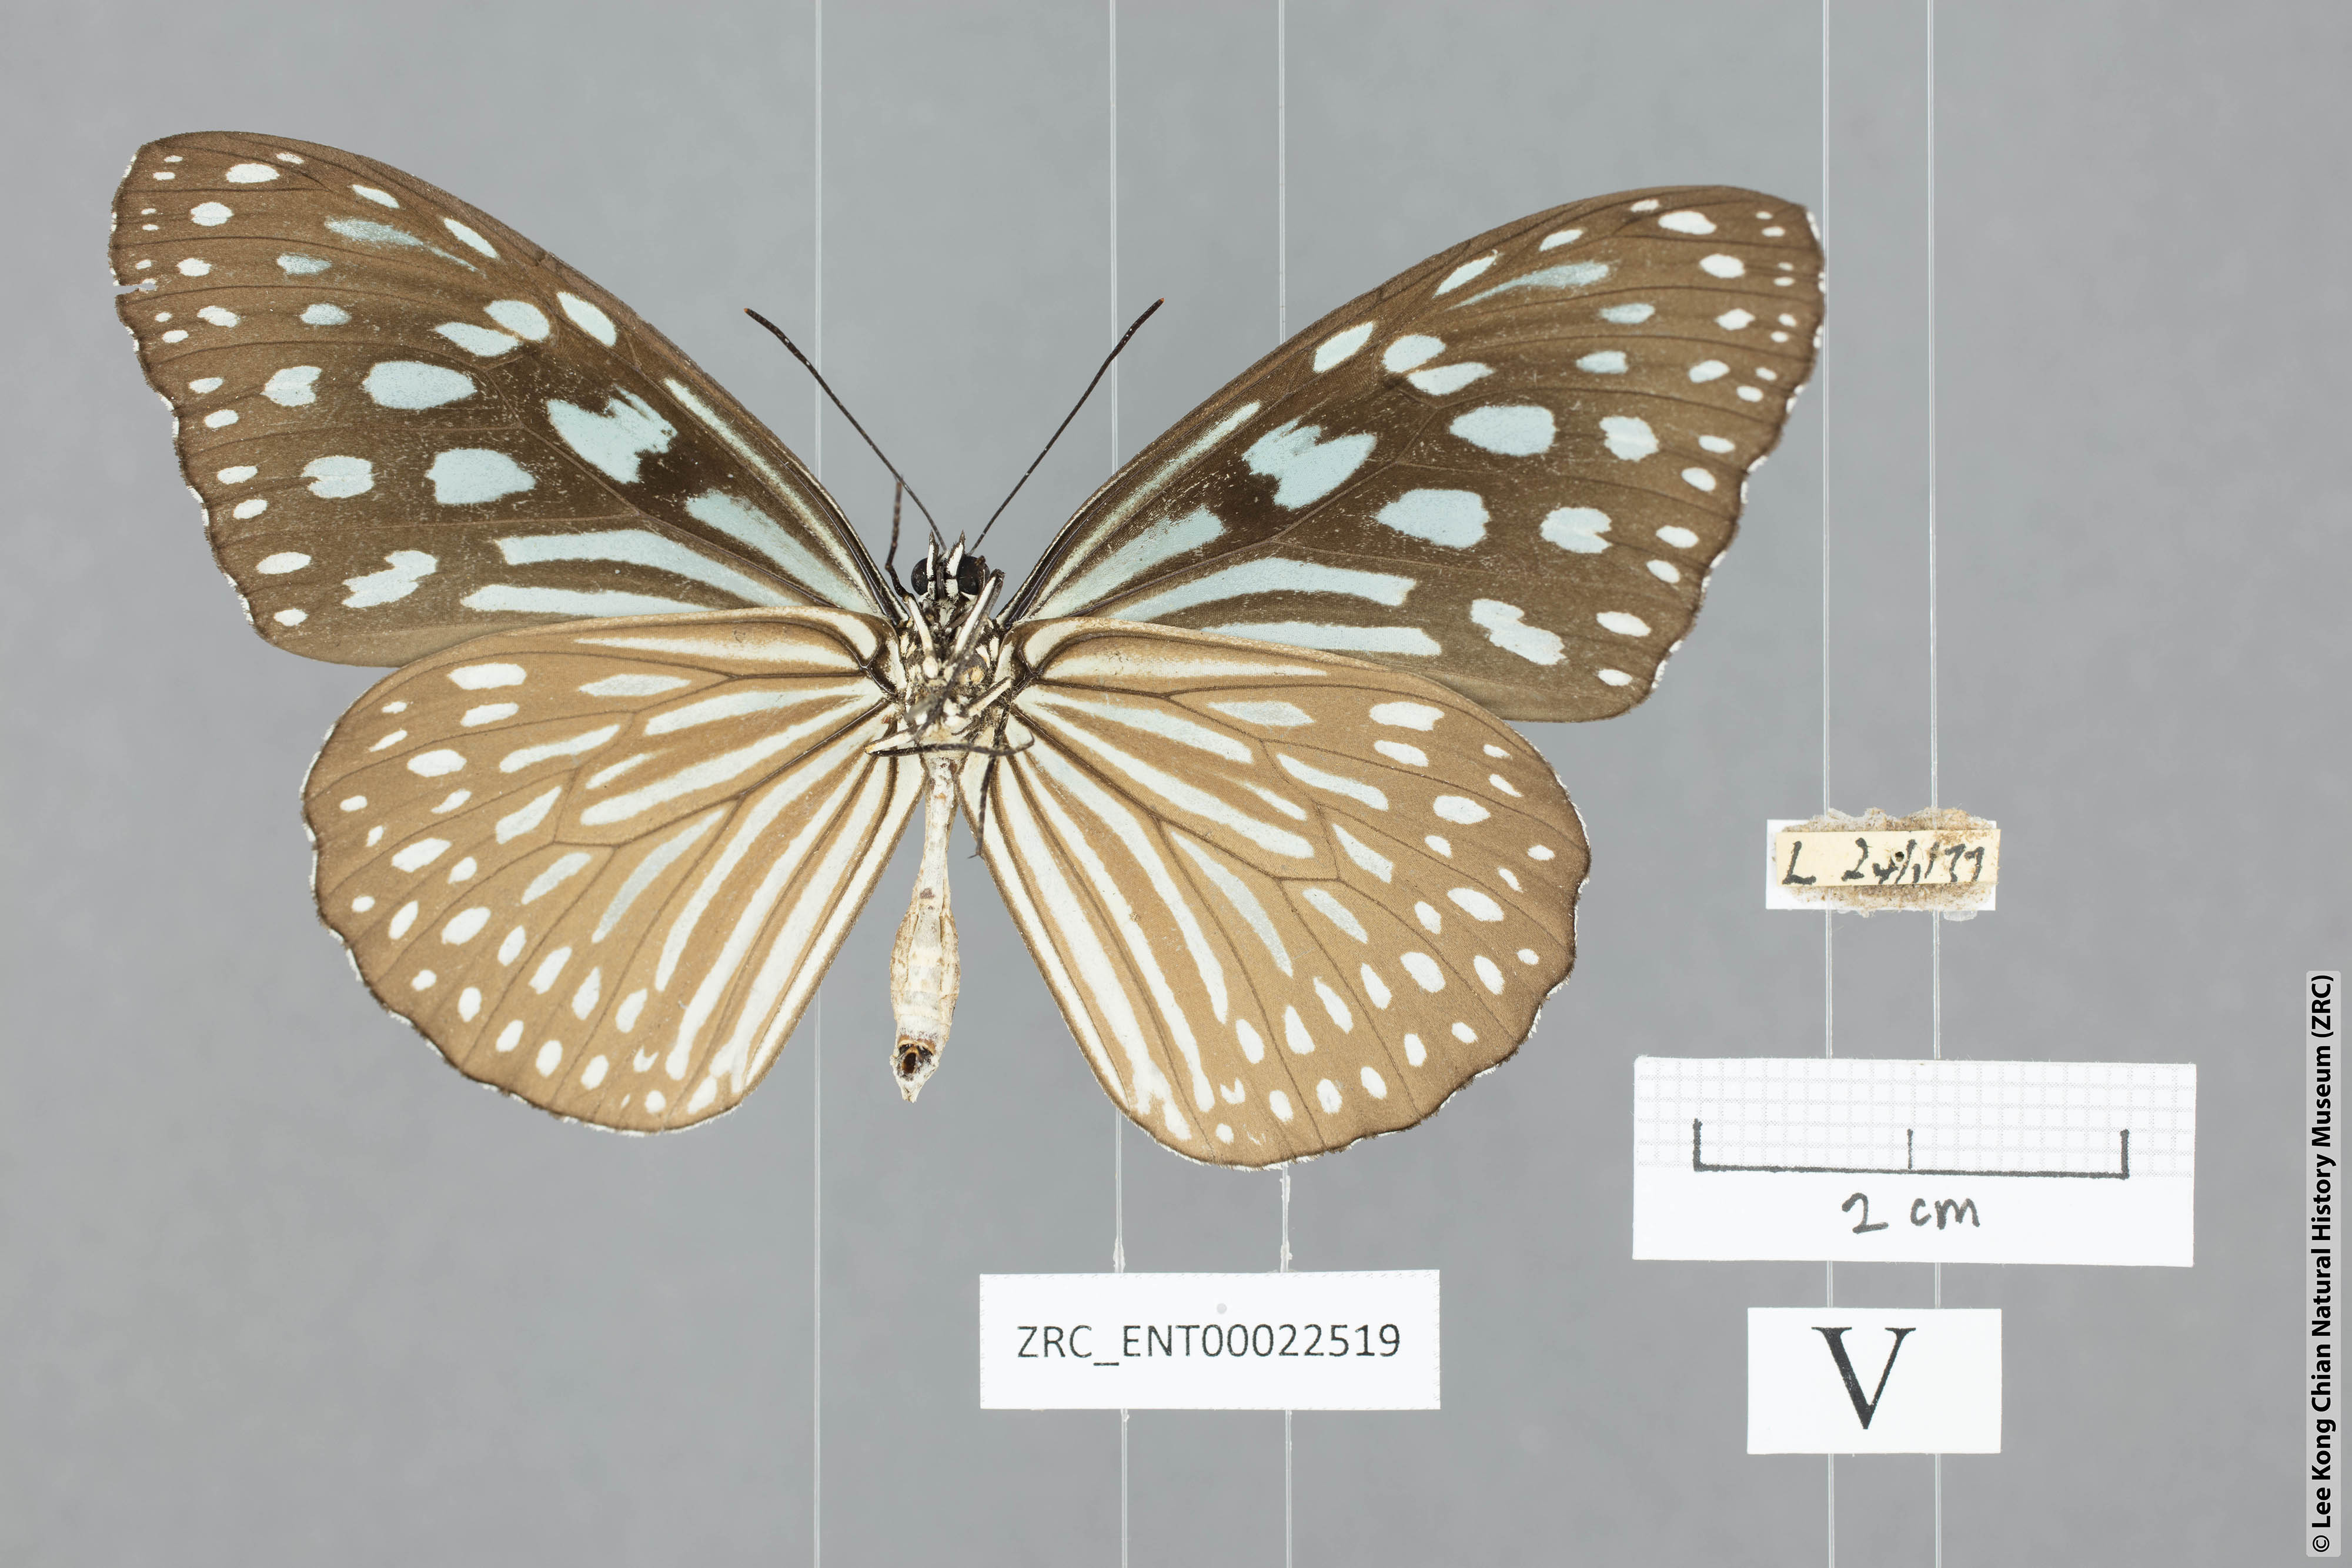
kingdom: Animalia
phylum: Arthropoda
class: Insecta
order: Lepidoptera
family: Nymphalidae
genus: Ideopsis
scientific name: Ideopsis similis
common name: Ceylon blue glassy tiger
